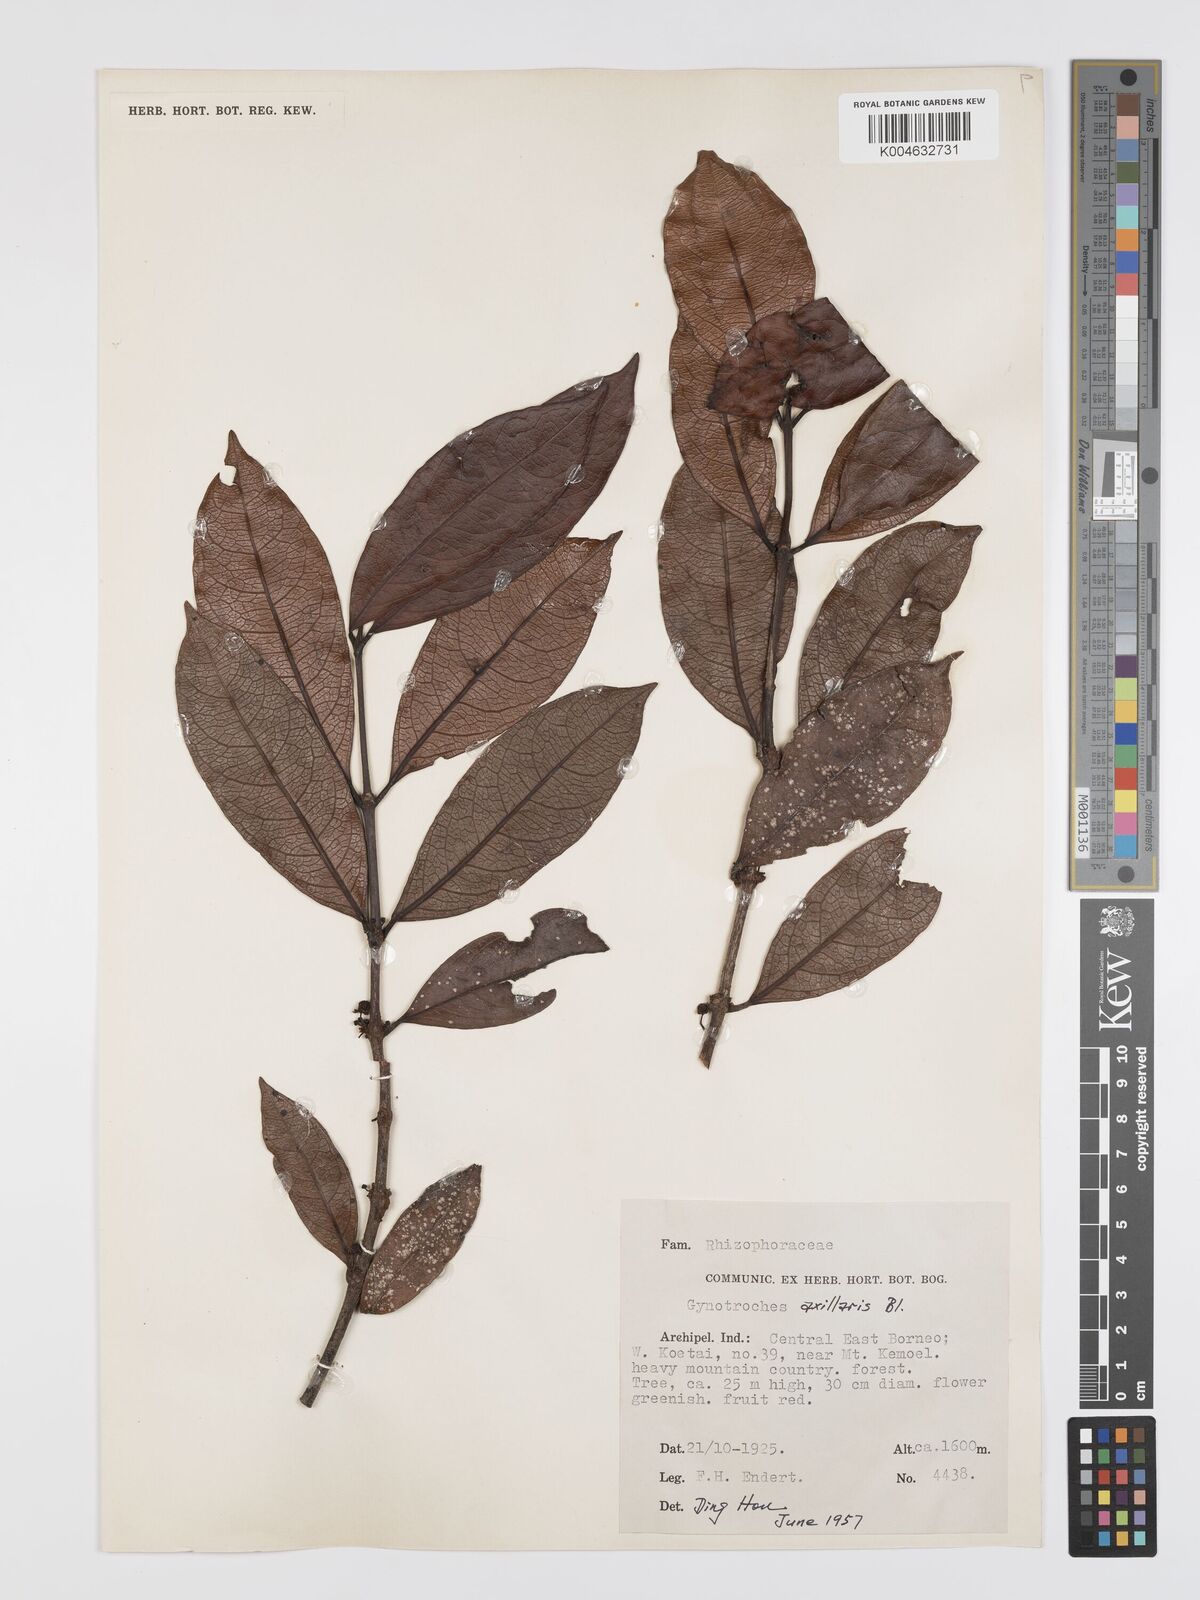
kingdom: Plantae
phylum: Tracheophyta
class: Magnoliopsida
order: Malpighiales
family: Rhizophoraceae
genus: Gynotroches
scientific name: Gynotroches axillaris
